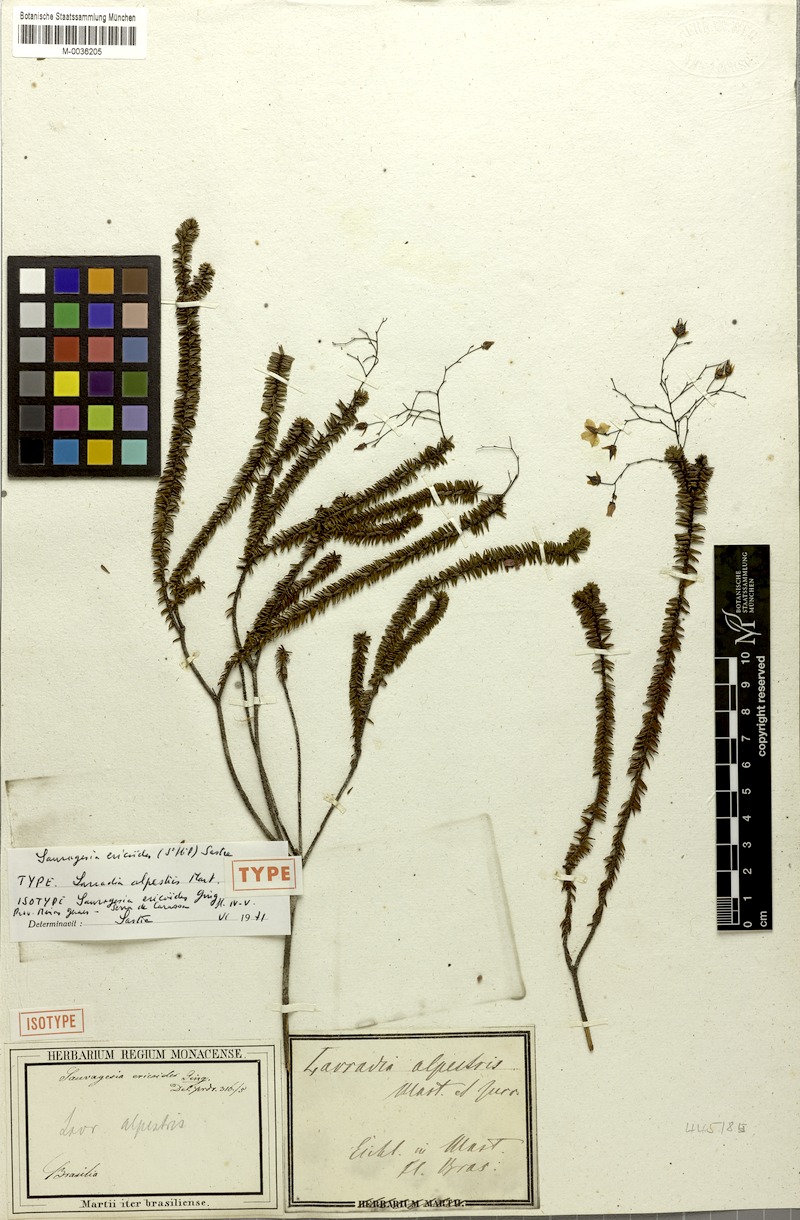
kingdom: Plantae
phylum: Tracheophyta
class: Magnoliopsida
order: Malpighiales
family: Ochnaceae
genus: Sauvagesia
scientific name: Sauvagesia ericoides
